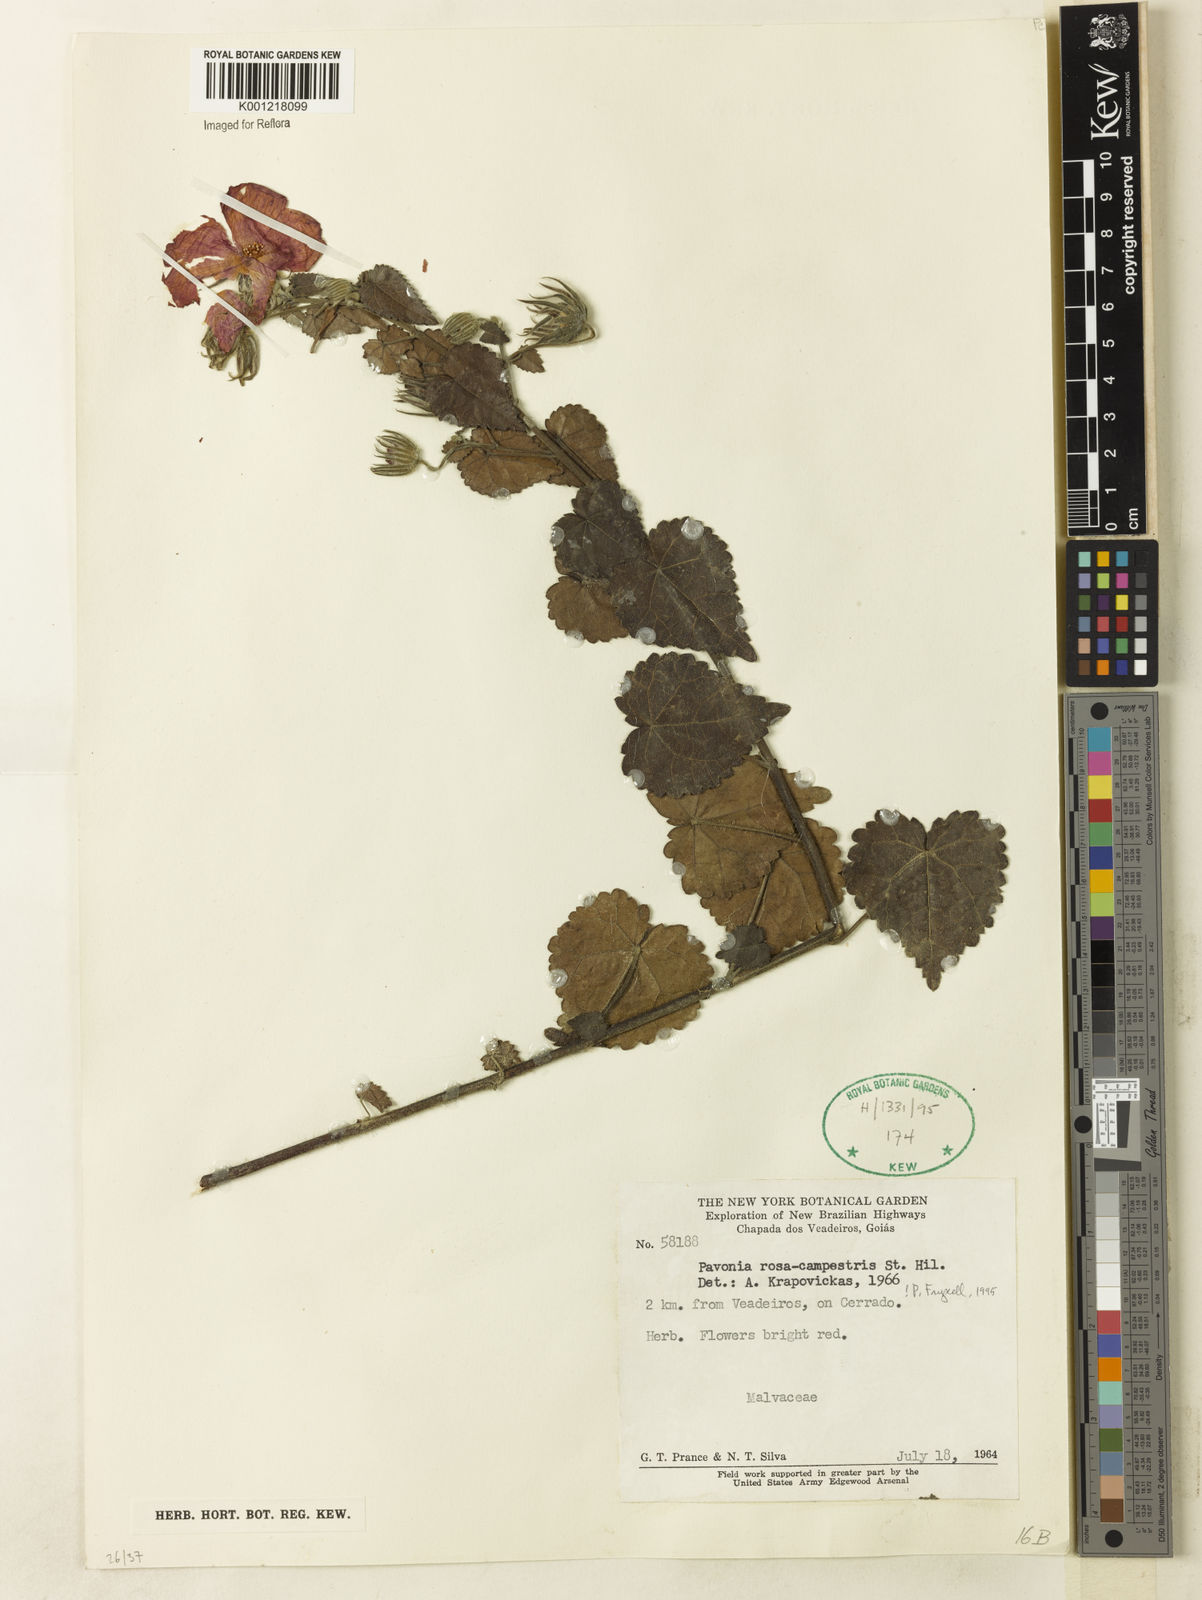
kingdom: Plantae
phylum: Tracheophyta
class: Magnoliopsida
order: Malvales
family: Malvaceae
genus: Pavonia
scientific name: Pavonia rosa-campestris
